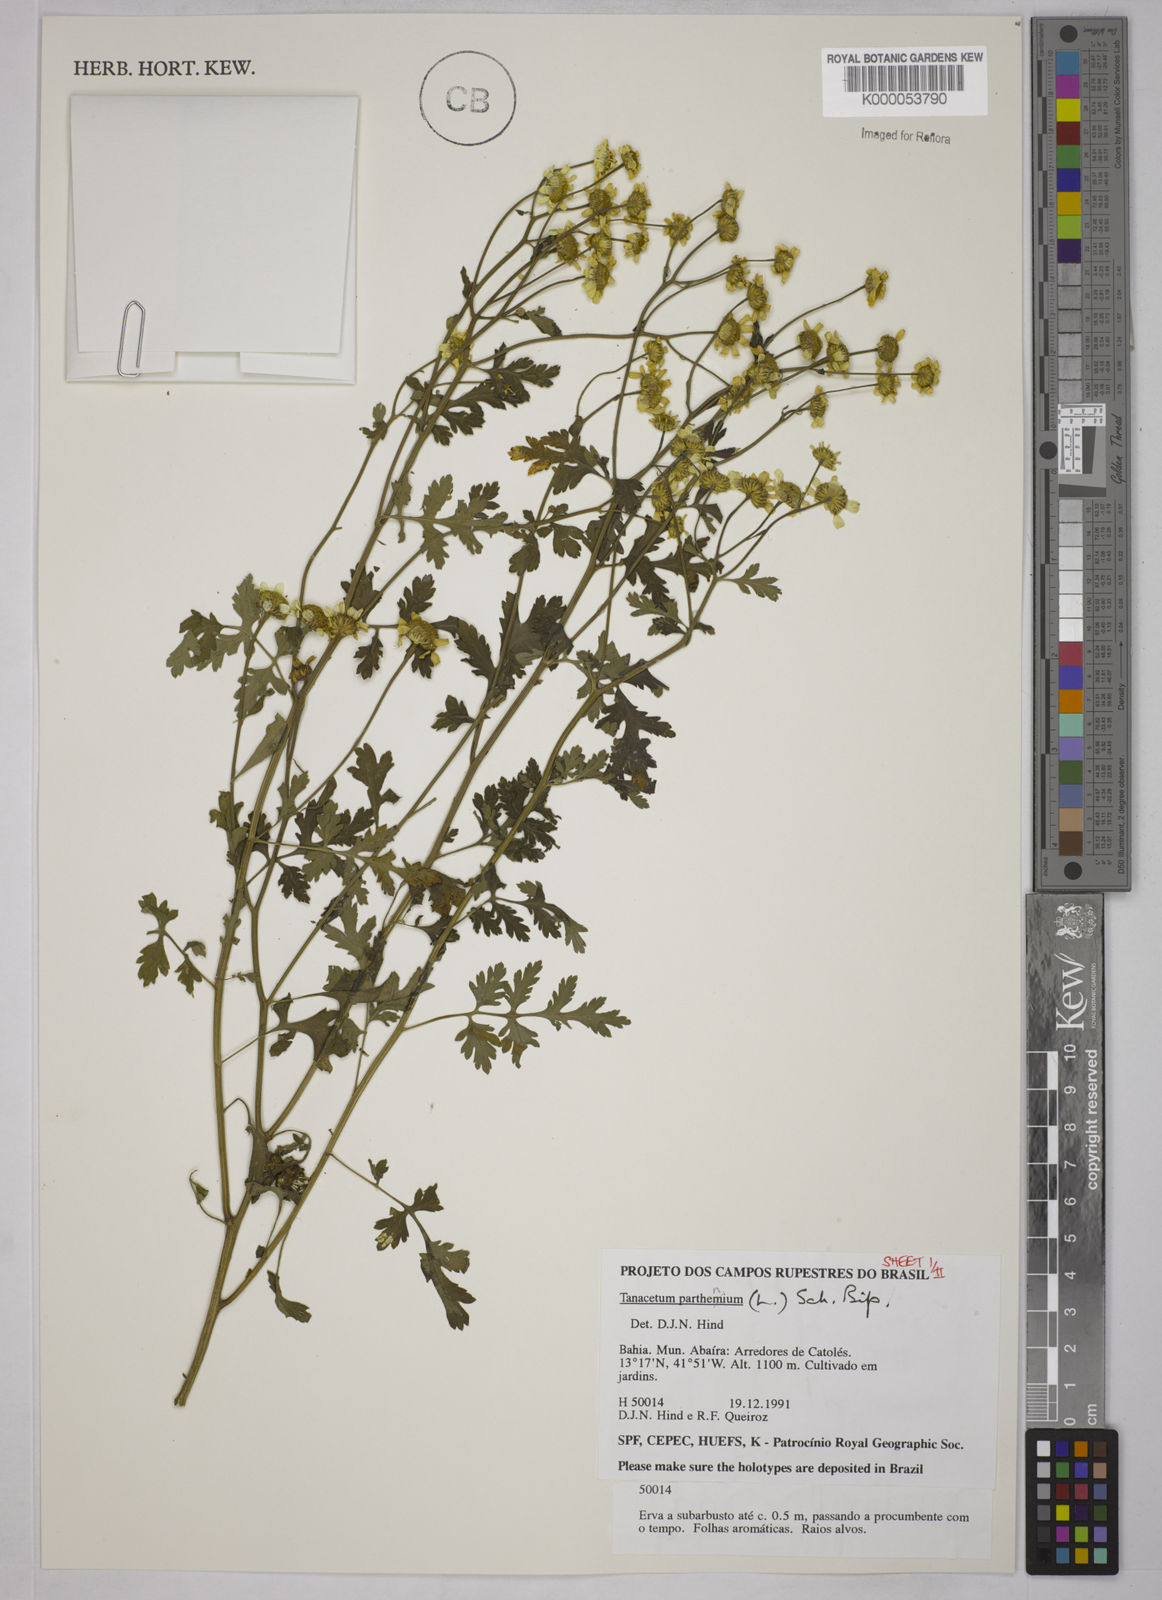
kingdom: Plantae
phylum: Tracheophyta
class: Magnoliopsida
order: Asterales
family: Asteraceae
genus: Tanacetum
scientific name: Tanacetum
